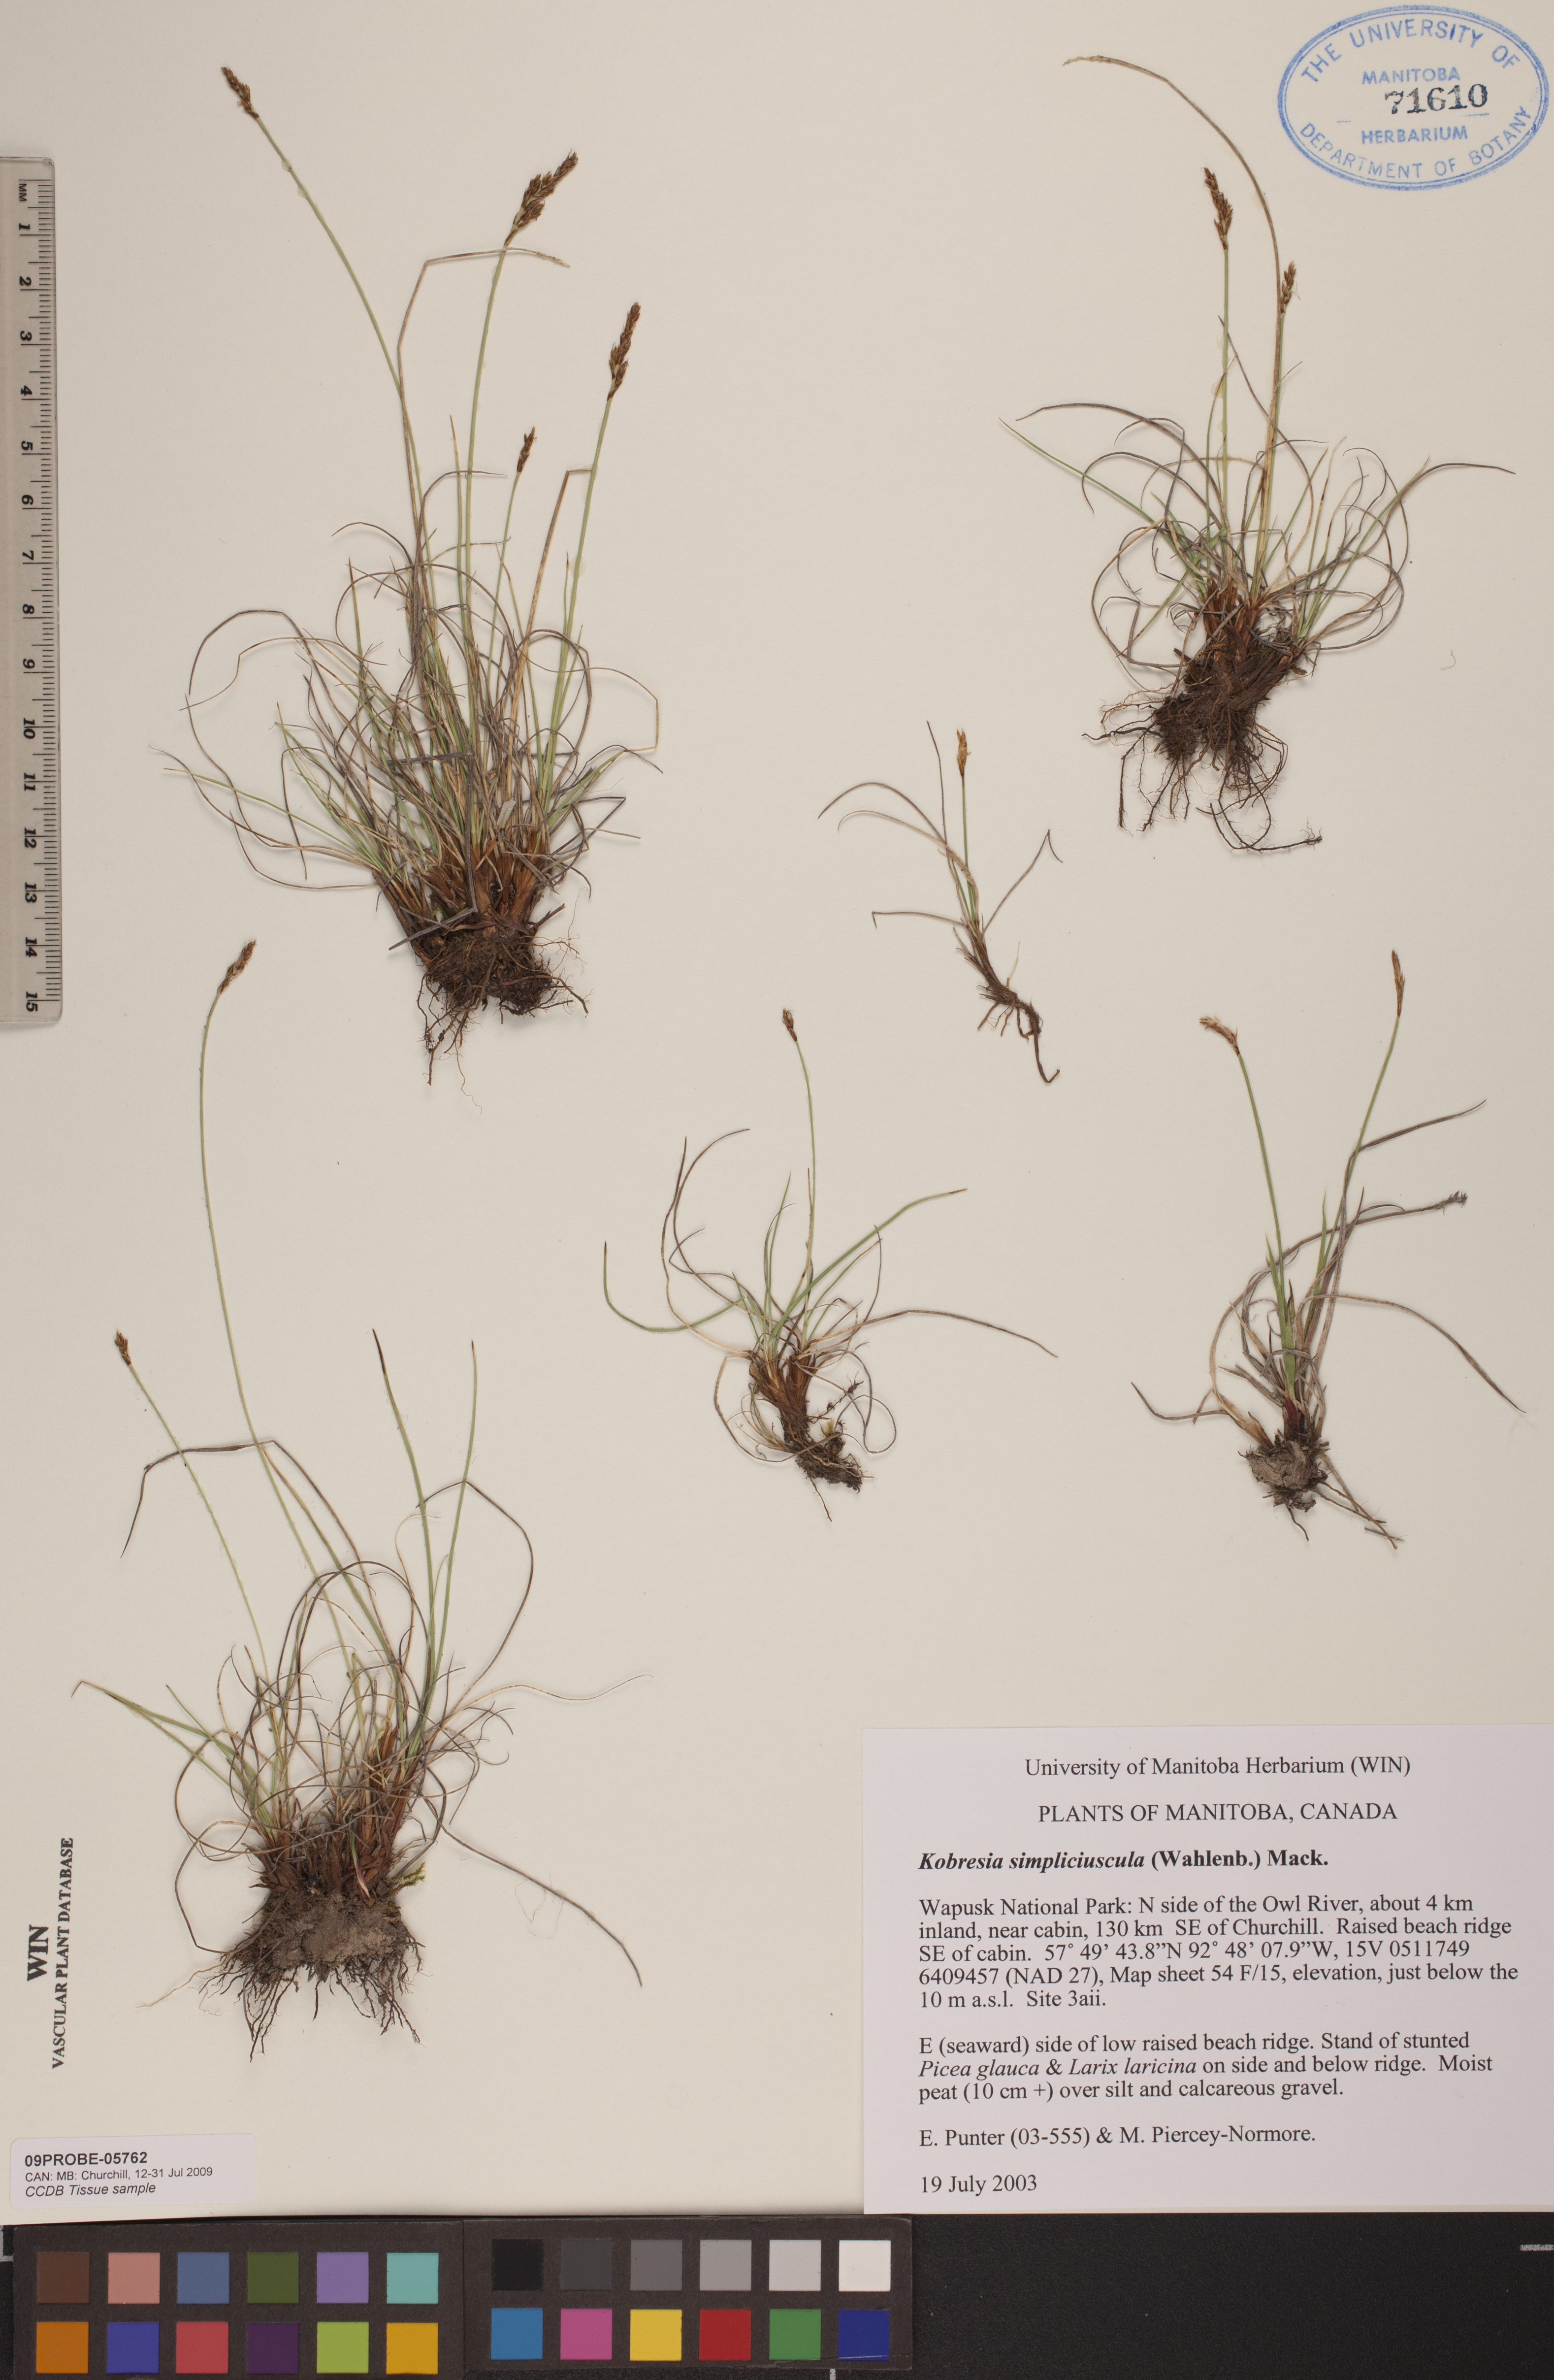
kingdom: Plantae
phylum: Tracheophyta
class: Liliopsida
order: Poales
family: Cyperaceae
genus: Carex
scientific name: Carex simpliciuscula
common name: Simple bog sedge
